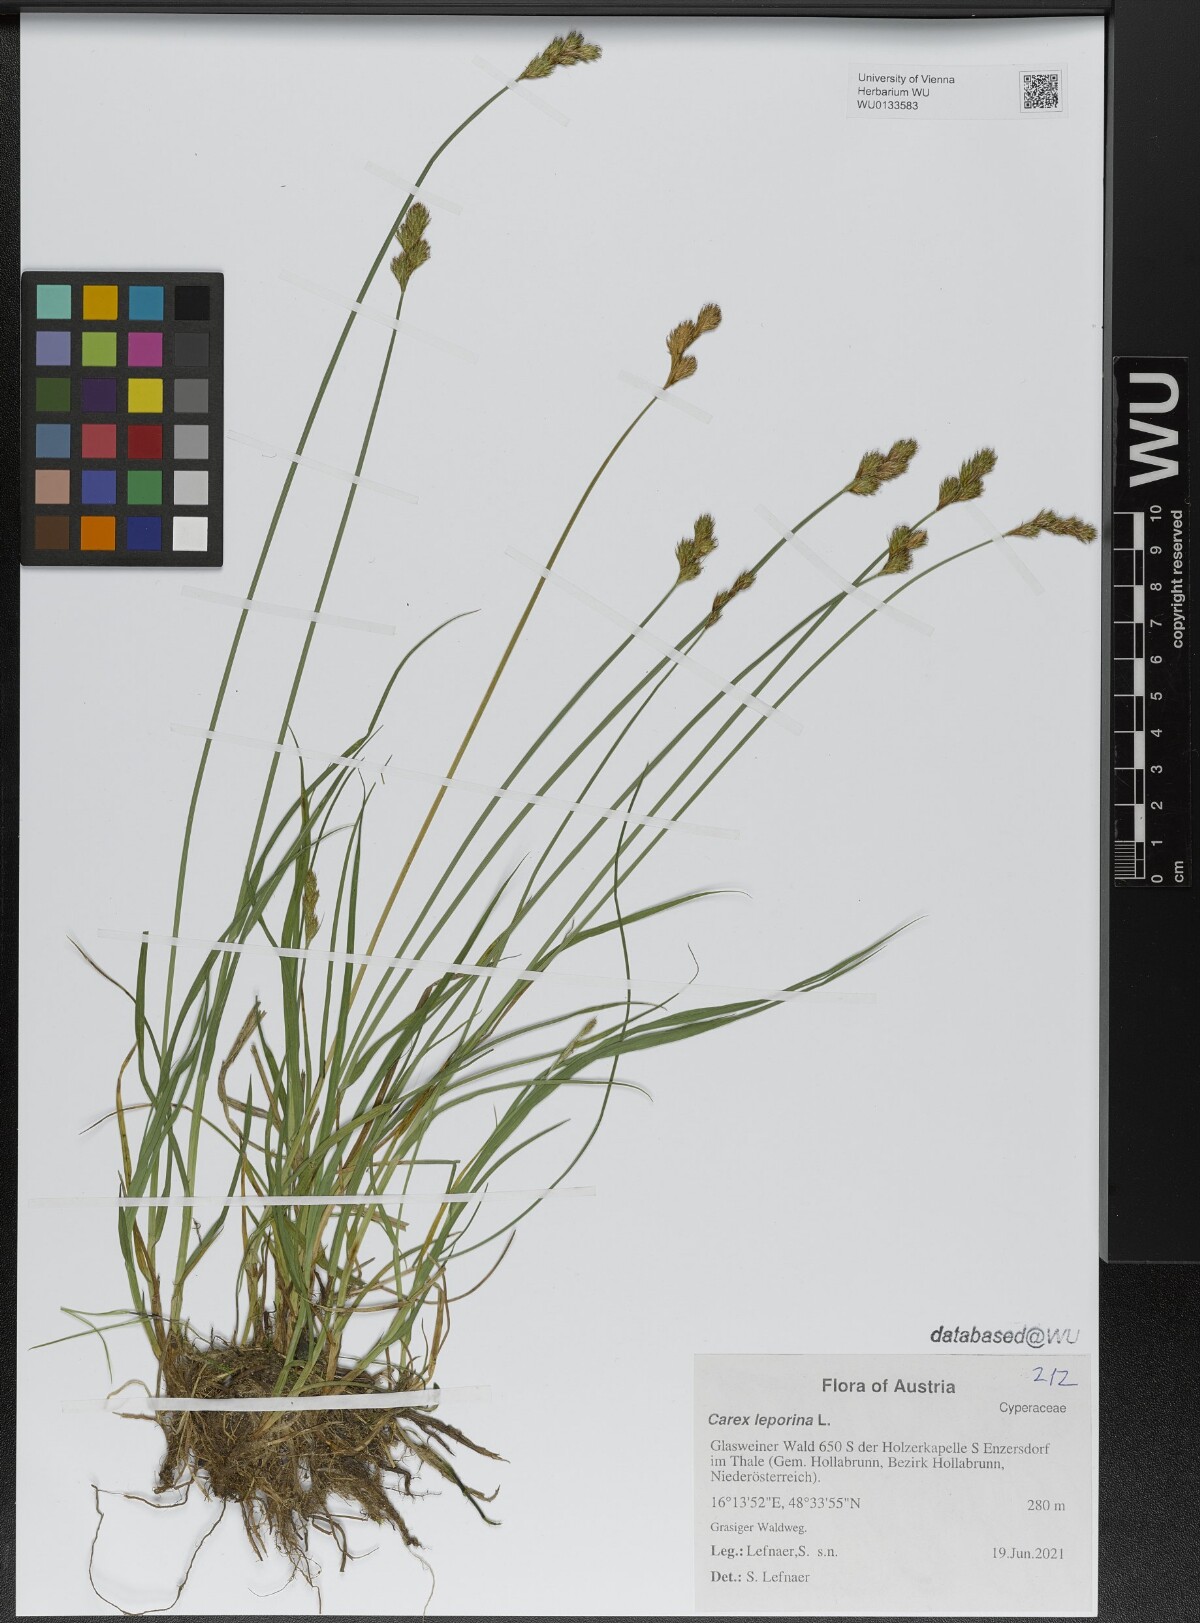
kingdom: Plantae
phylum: Tracheophyta
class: Liliopsida
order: Poales
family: Cyperaceae
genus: Carex
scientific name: Carex leporina
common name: Oval sedge
